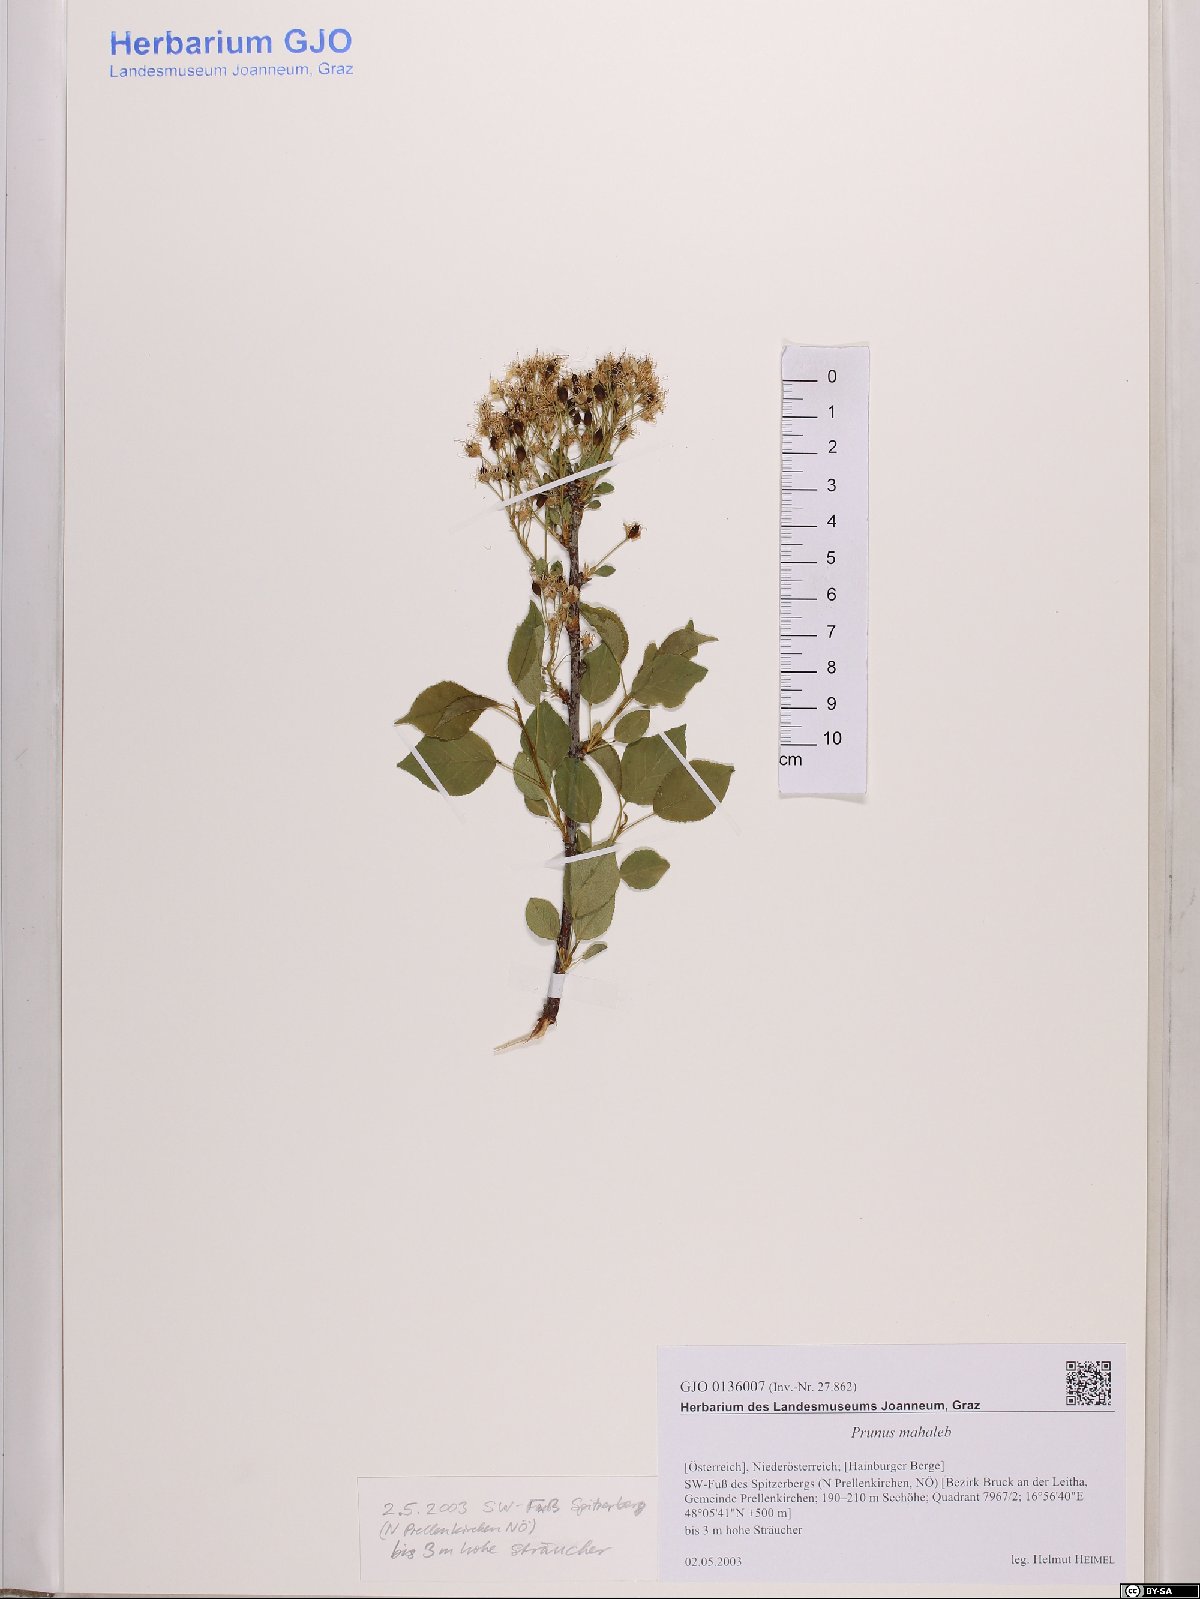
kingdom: Plantae
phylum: Tracheophyta
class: Magnoliopsida
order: Rosales
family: Rosaceae
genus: Prunus
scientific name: Prunus mahaleb
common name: Mahaleb cherry
